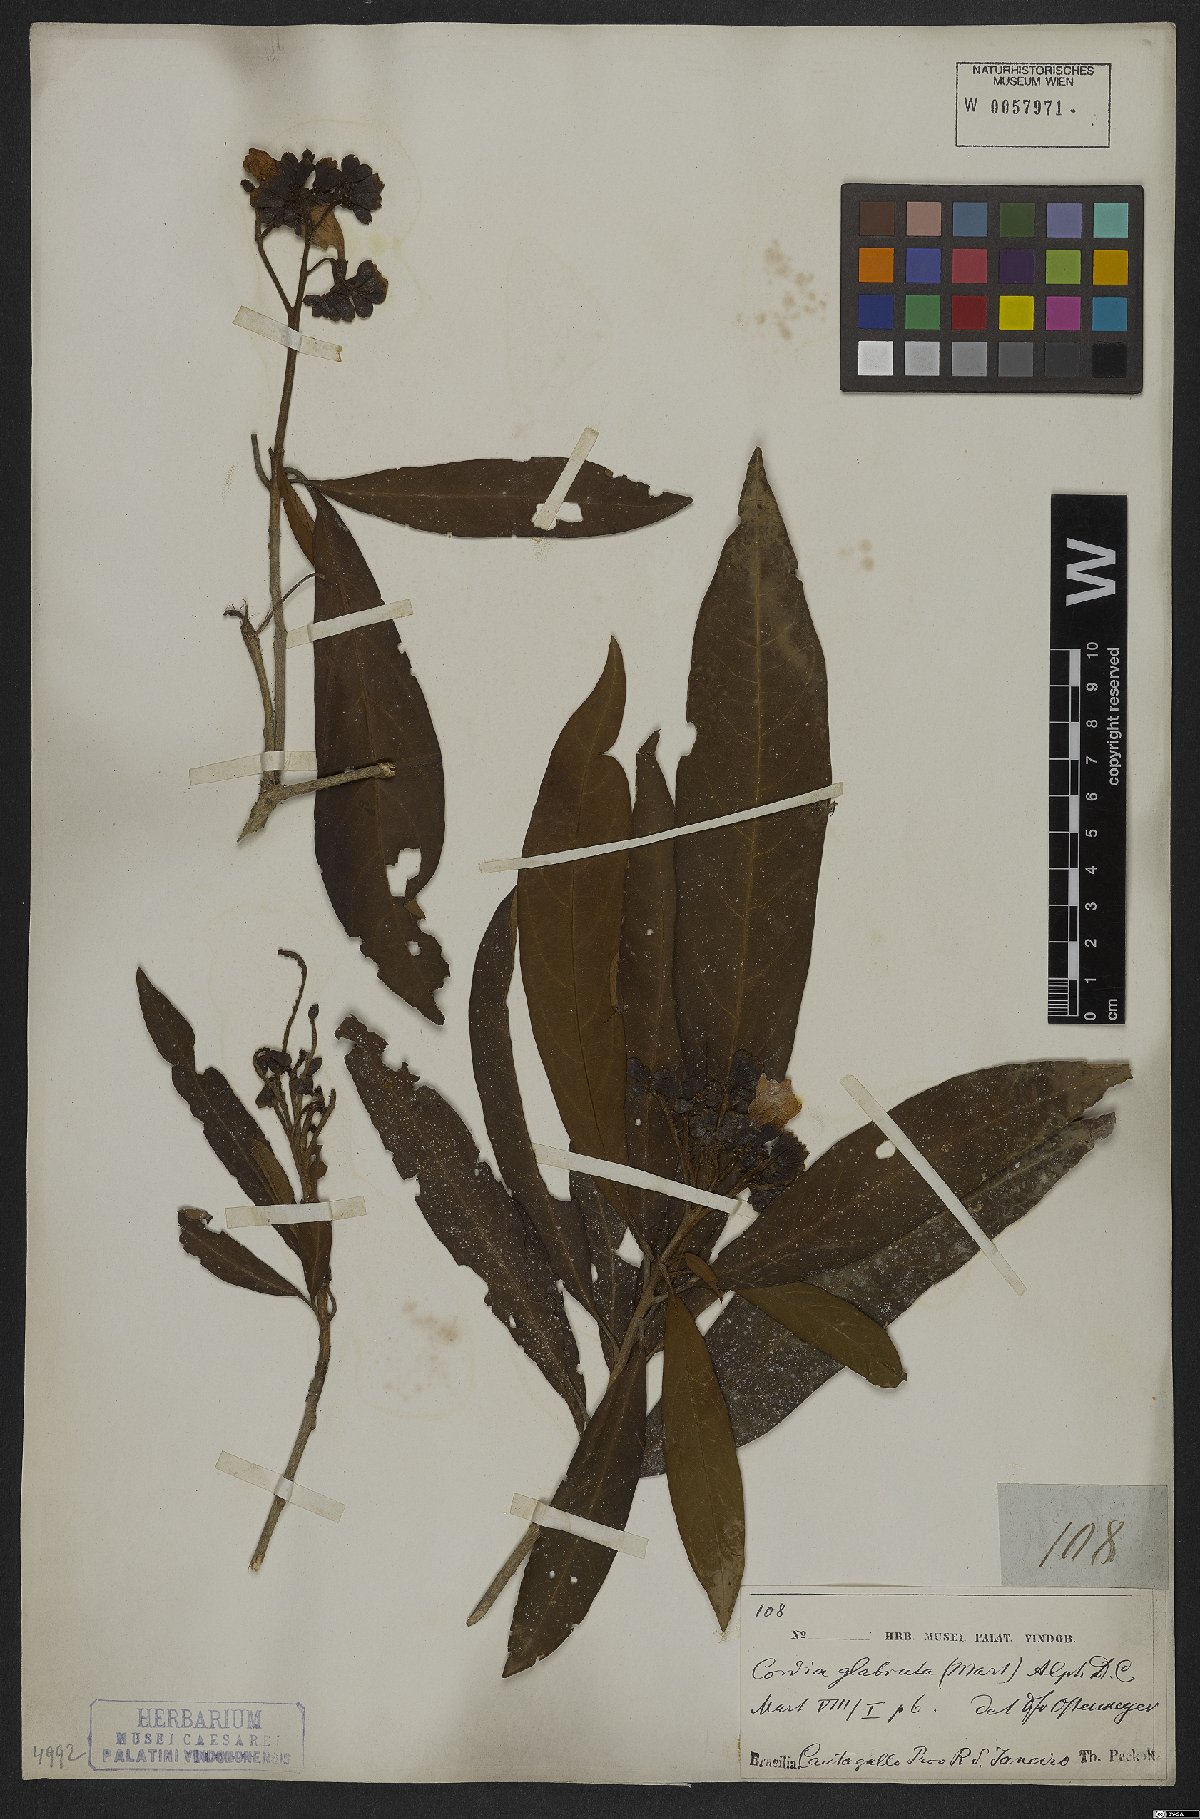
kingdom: Plantae
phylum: Tracheophyta
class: Magnoliopsida
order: Boraginales
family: Cordiaceae
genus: Cordia
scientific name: Cordia glabrata
